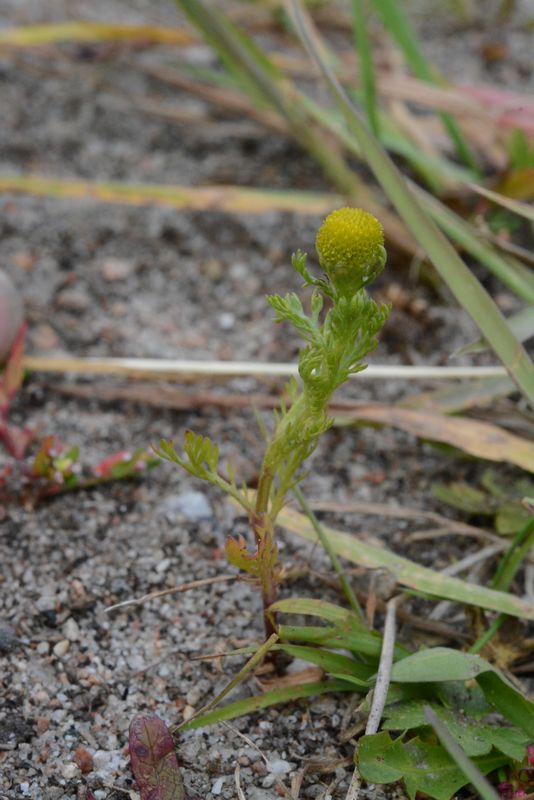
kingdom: Plantae
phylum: Tracheophyta
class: Magnoliopsida
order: Asterales
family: Asteraceae
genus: Matricaria
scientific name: Matricaria discoidea
